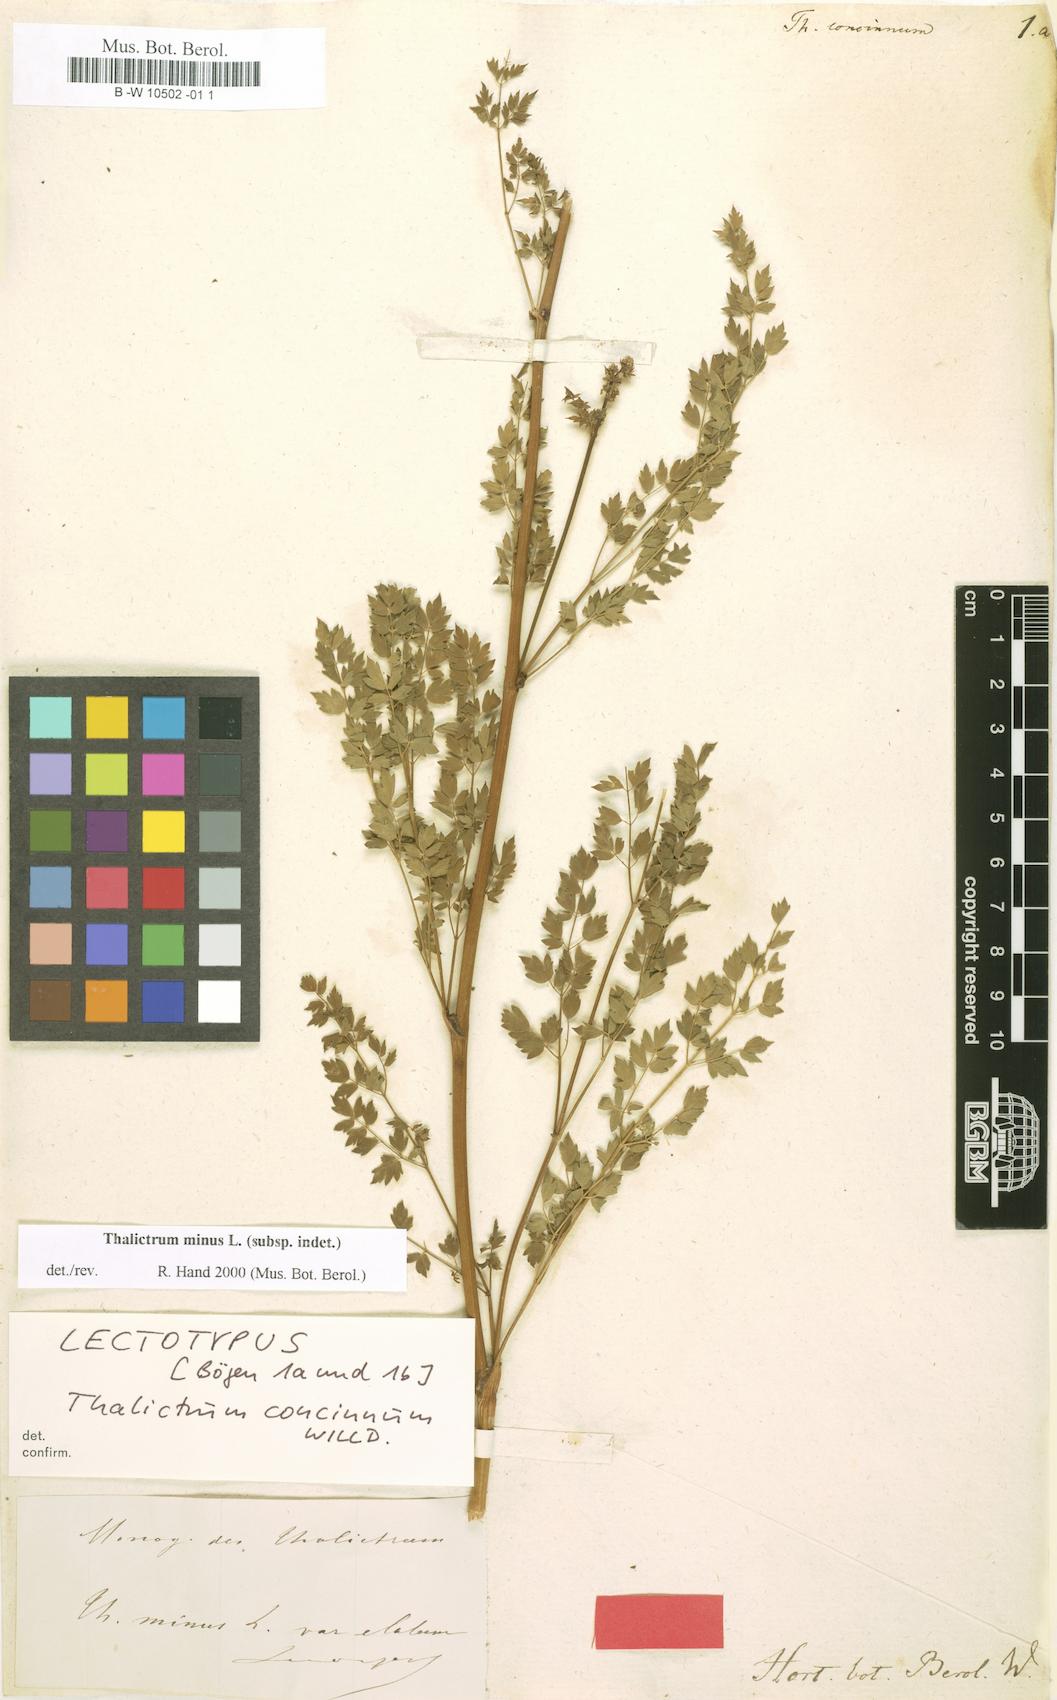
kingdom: Plantae
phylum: Tracheophyta
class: Magnoliopsida
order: Ranunculales
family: Ranunculaceae
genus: Thalictrum
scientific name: Thalictrum minus
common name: Lesser meadow-rue
